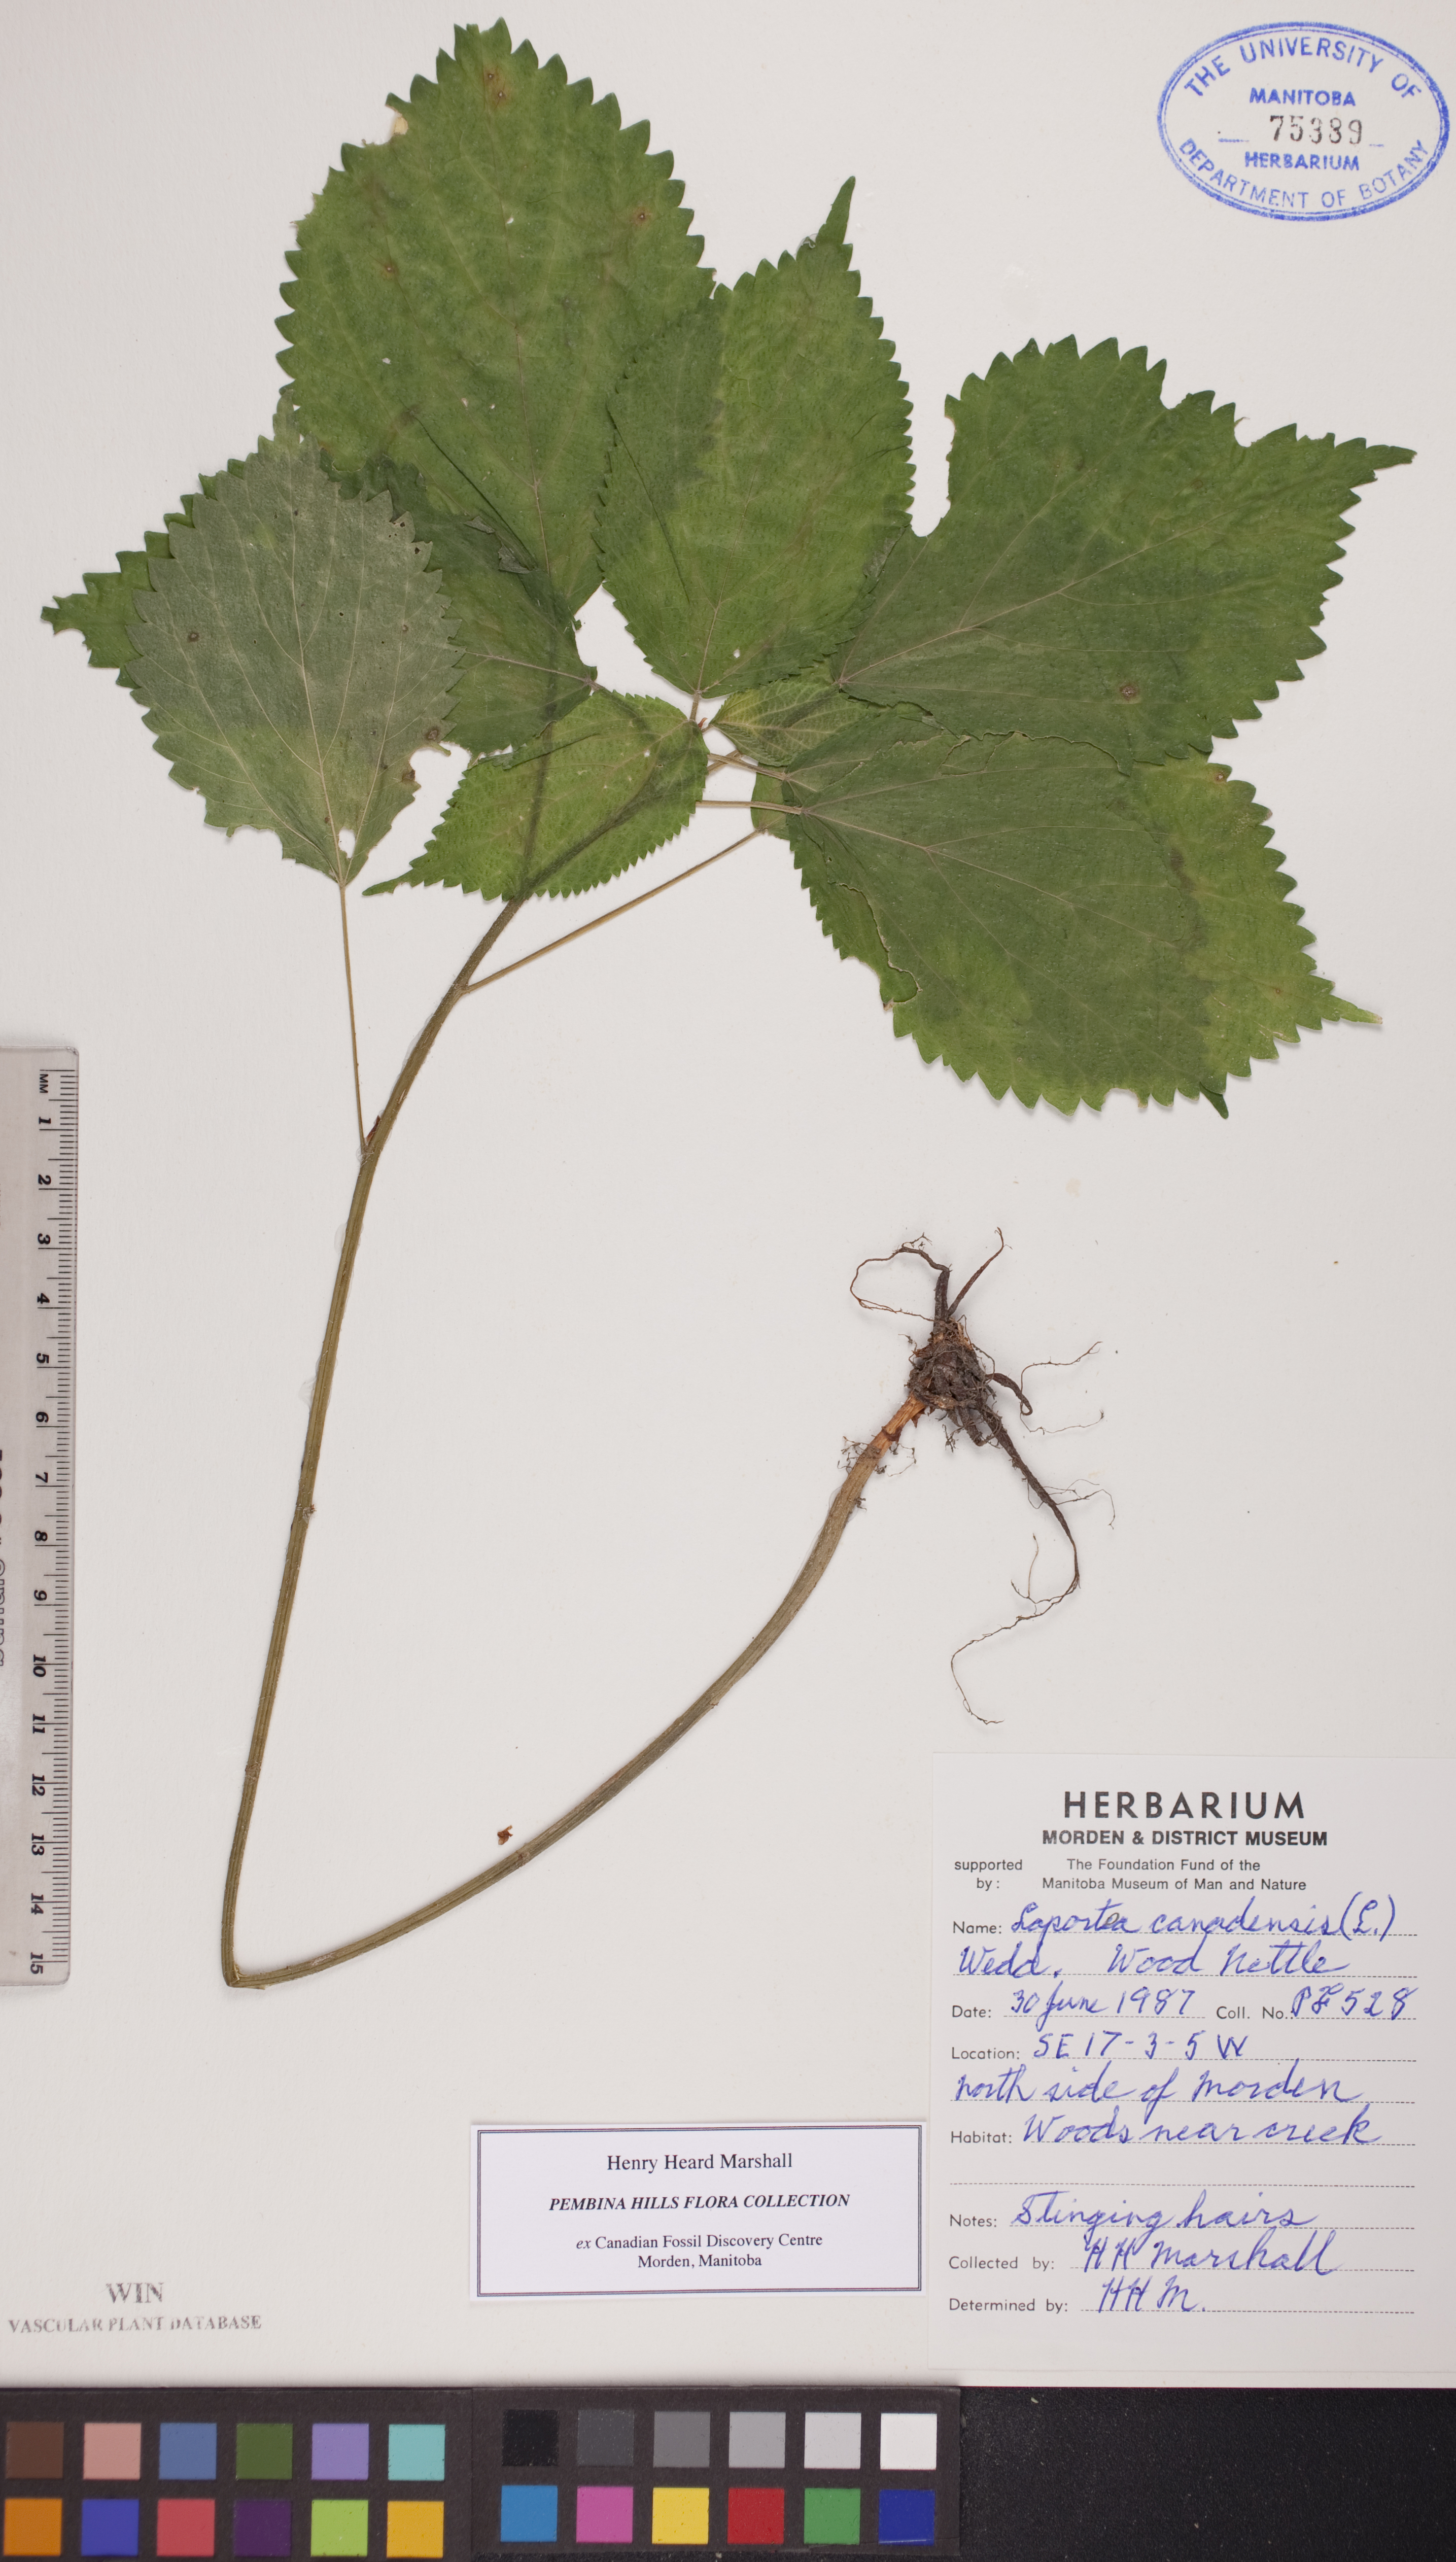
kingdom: Plantae
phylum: Tracheophyta
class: Magnoliopsida
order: Rosales
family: Urticaceae
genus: Laportea
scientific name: Laportea canadensis
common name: Canada nettle
